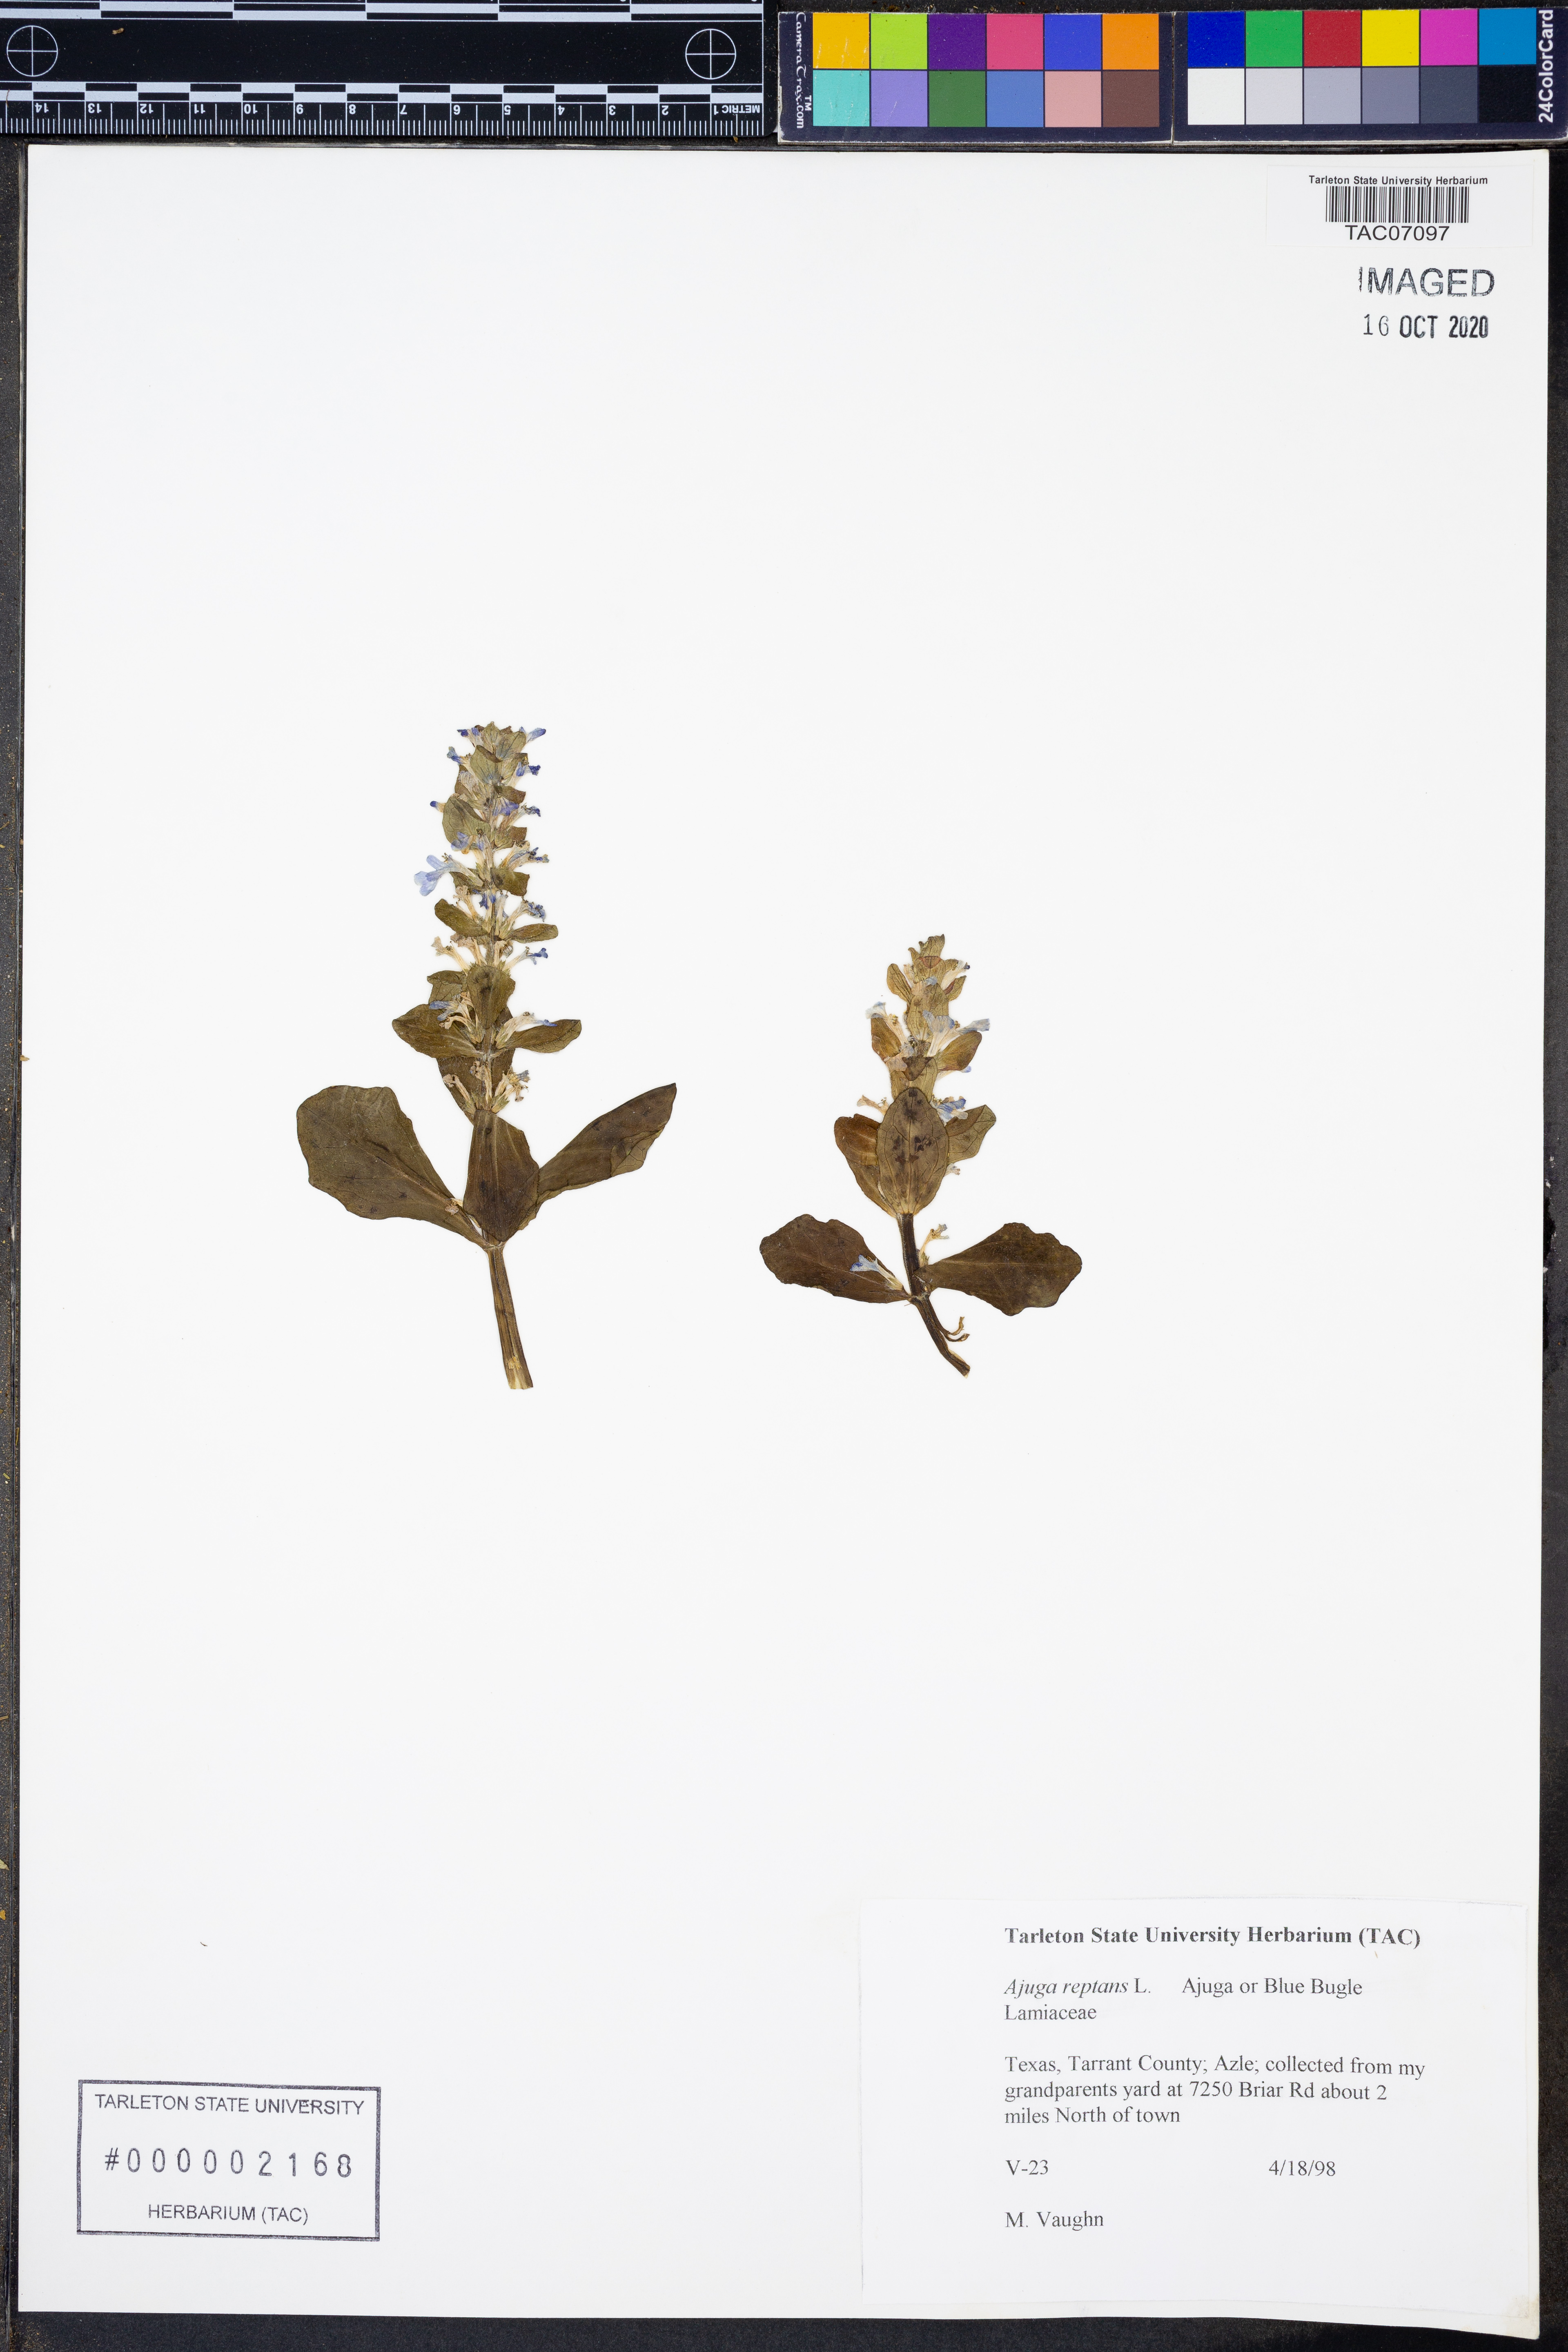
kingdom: Plantae
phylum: Tracheophyta
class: Magnoliopsida
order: Lamiales
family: Lamiaceae
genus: Ajuga
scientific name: Ajuga reptans
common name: Bugle
